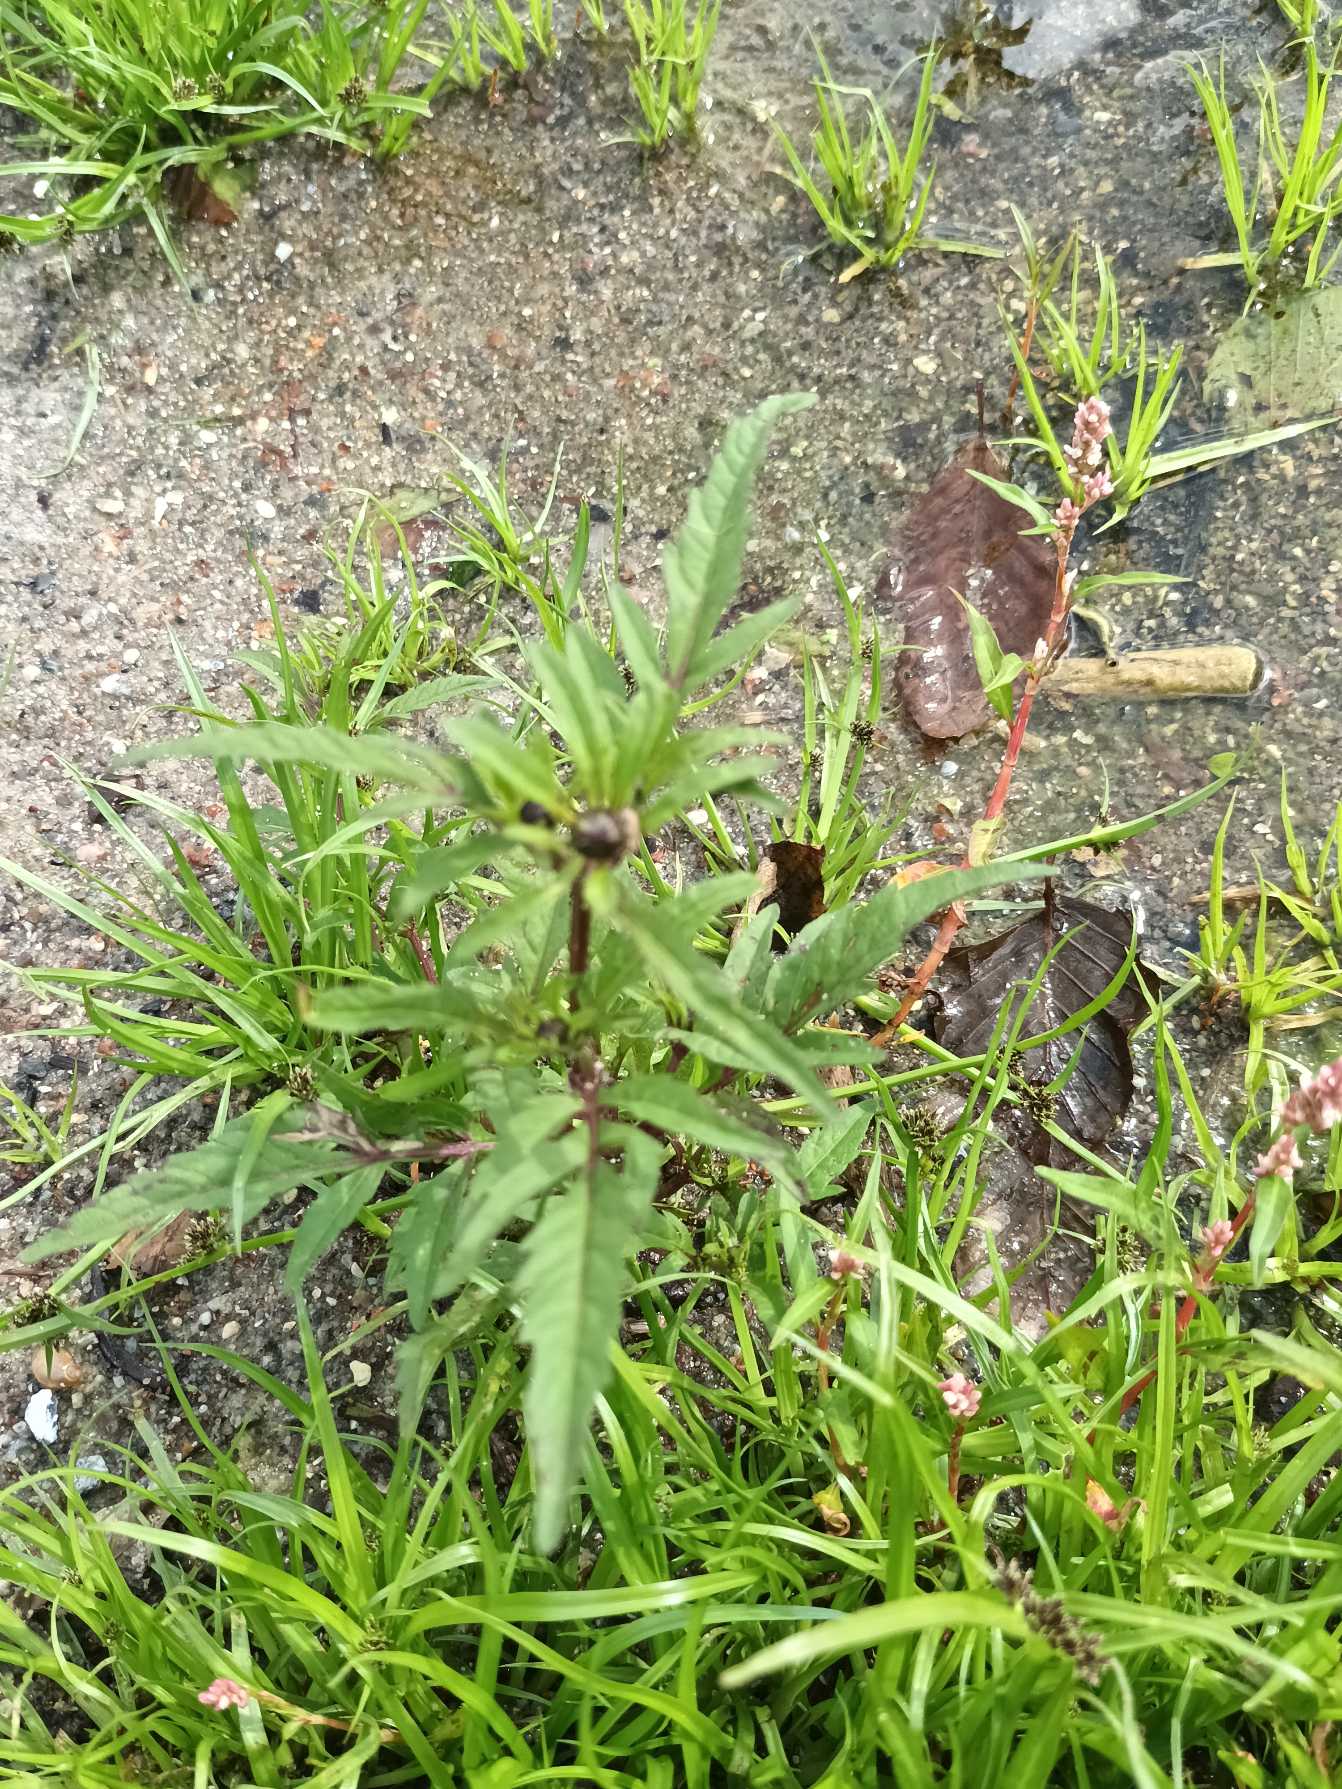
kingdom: Plantae
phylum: Tracheophyta
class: Magnoliopsida
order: Asterales
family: Asteraceae
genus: Bidens
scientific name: Bidens tripartita
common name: Fliget brøndsel
